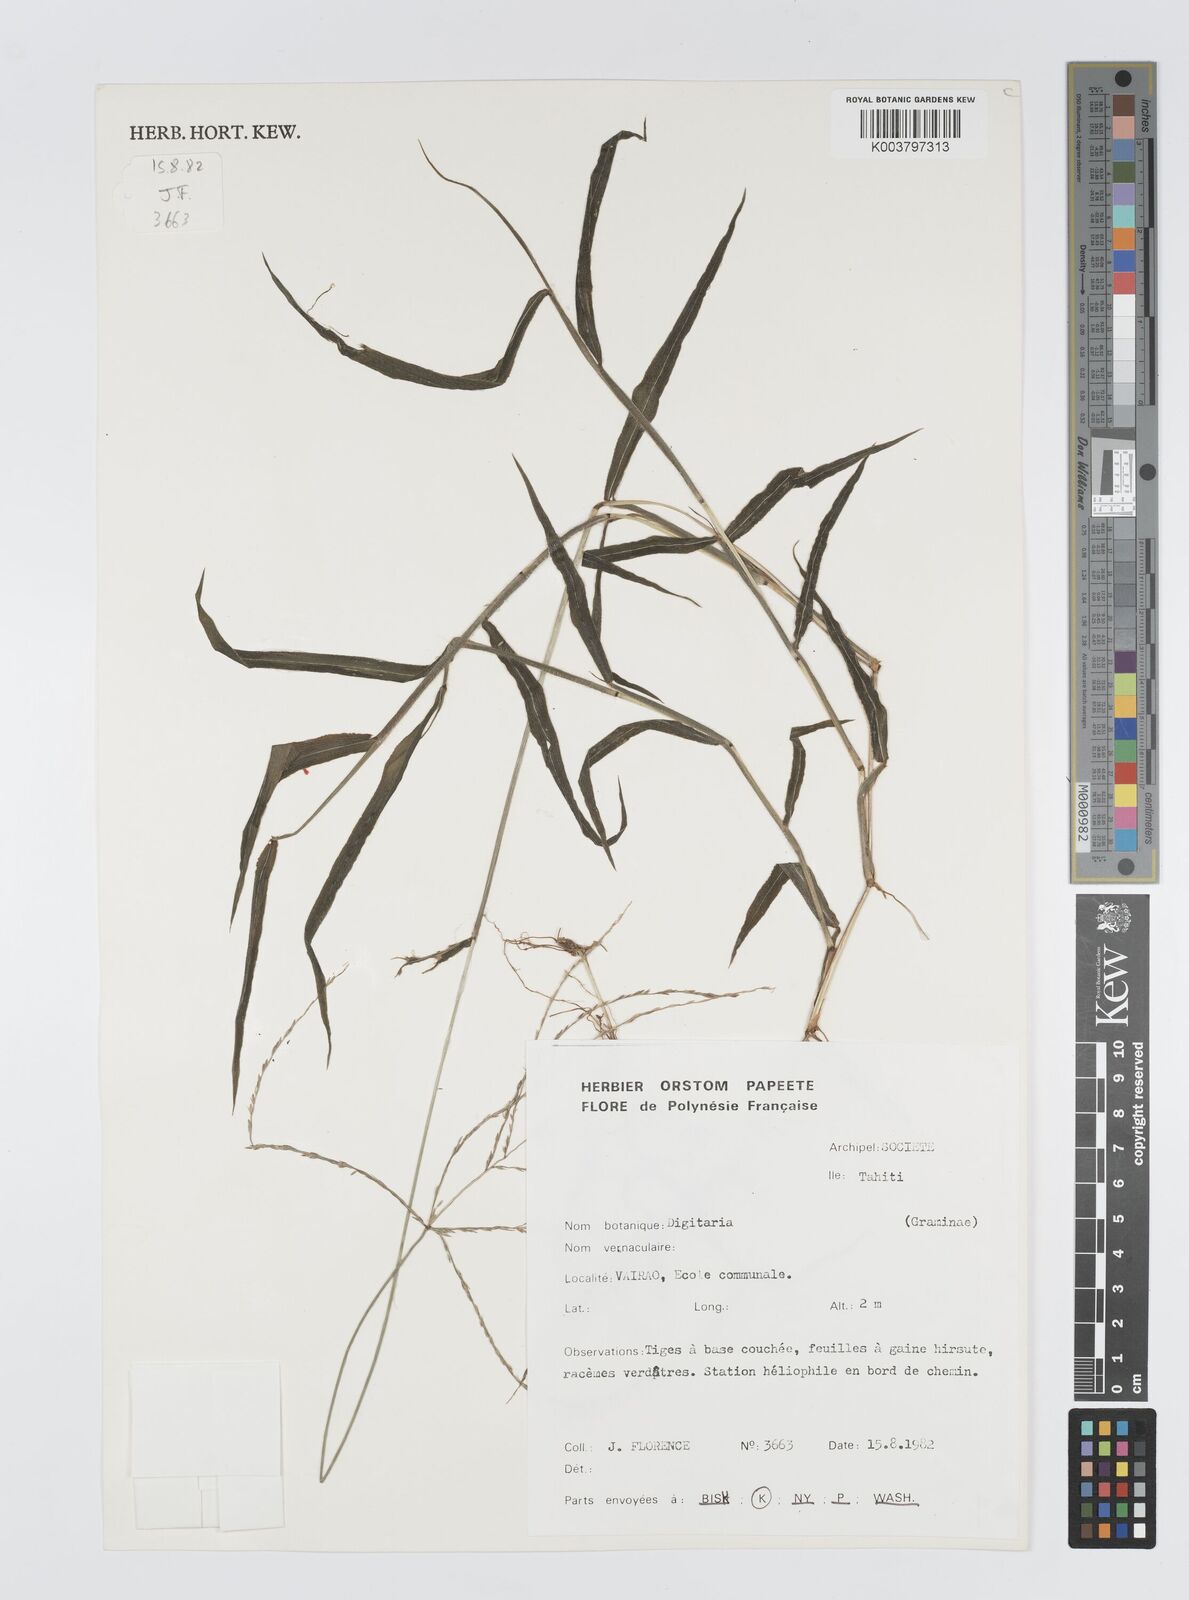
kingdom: Plantae
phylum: Tracheophyta
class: Liliopsida
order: Poales
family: Poaceae
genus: Digitaria
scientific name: Digitaria horizontalis
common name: Jamaican crabgrass
